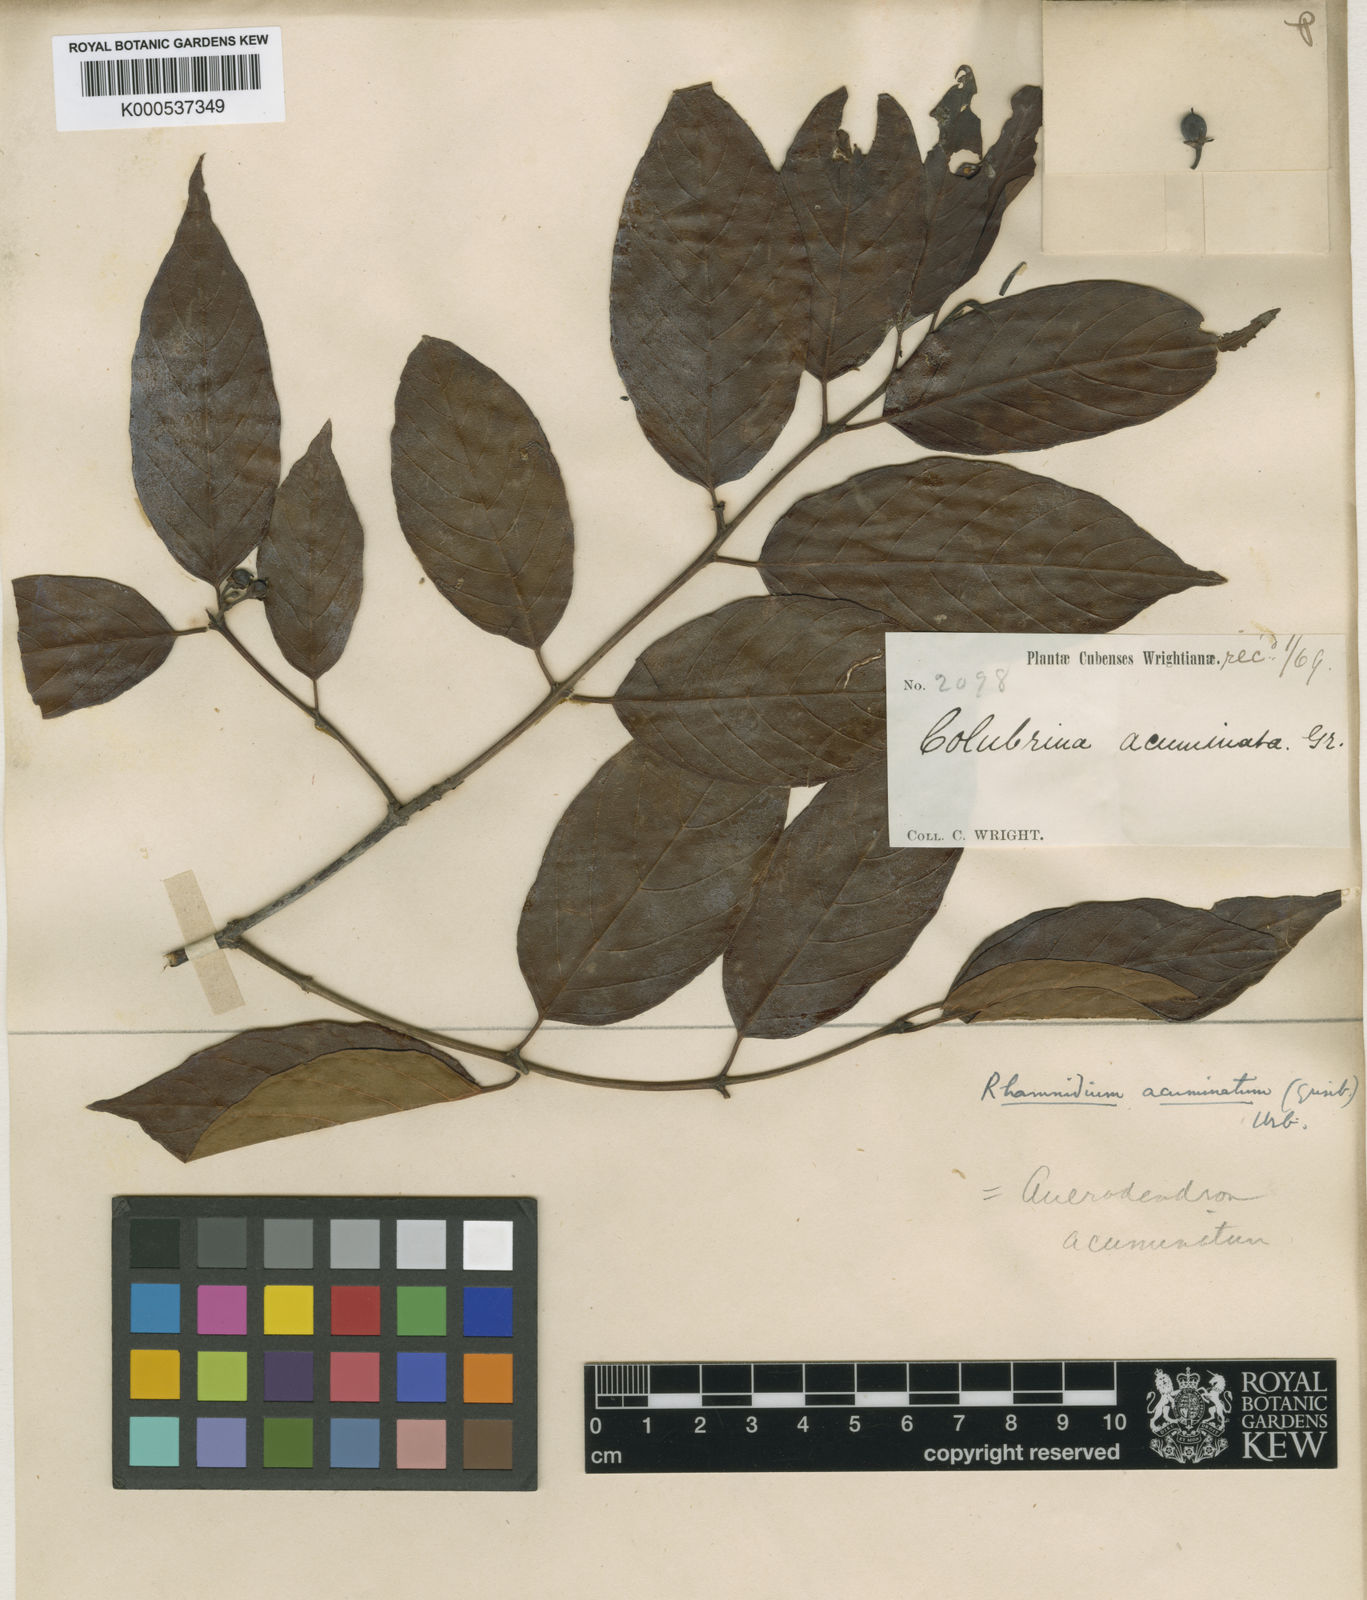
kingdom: Plantae
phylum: Tracheophyta
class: Magnoliopsida
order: Rosales
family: Rhamnaceae
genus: Auerodendron
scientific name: Auerodendron acuminatum
